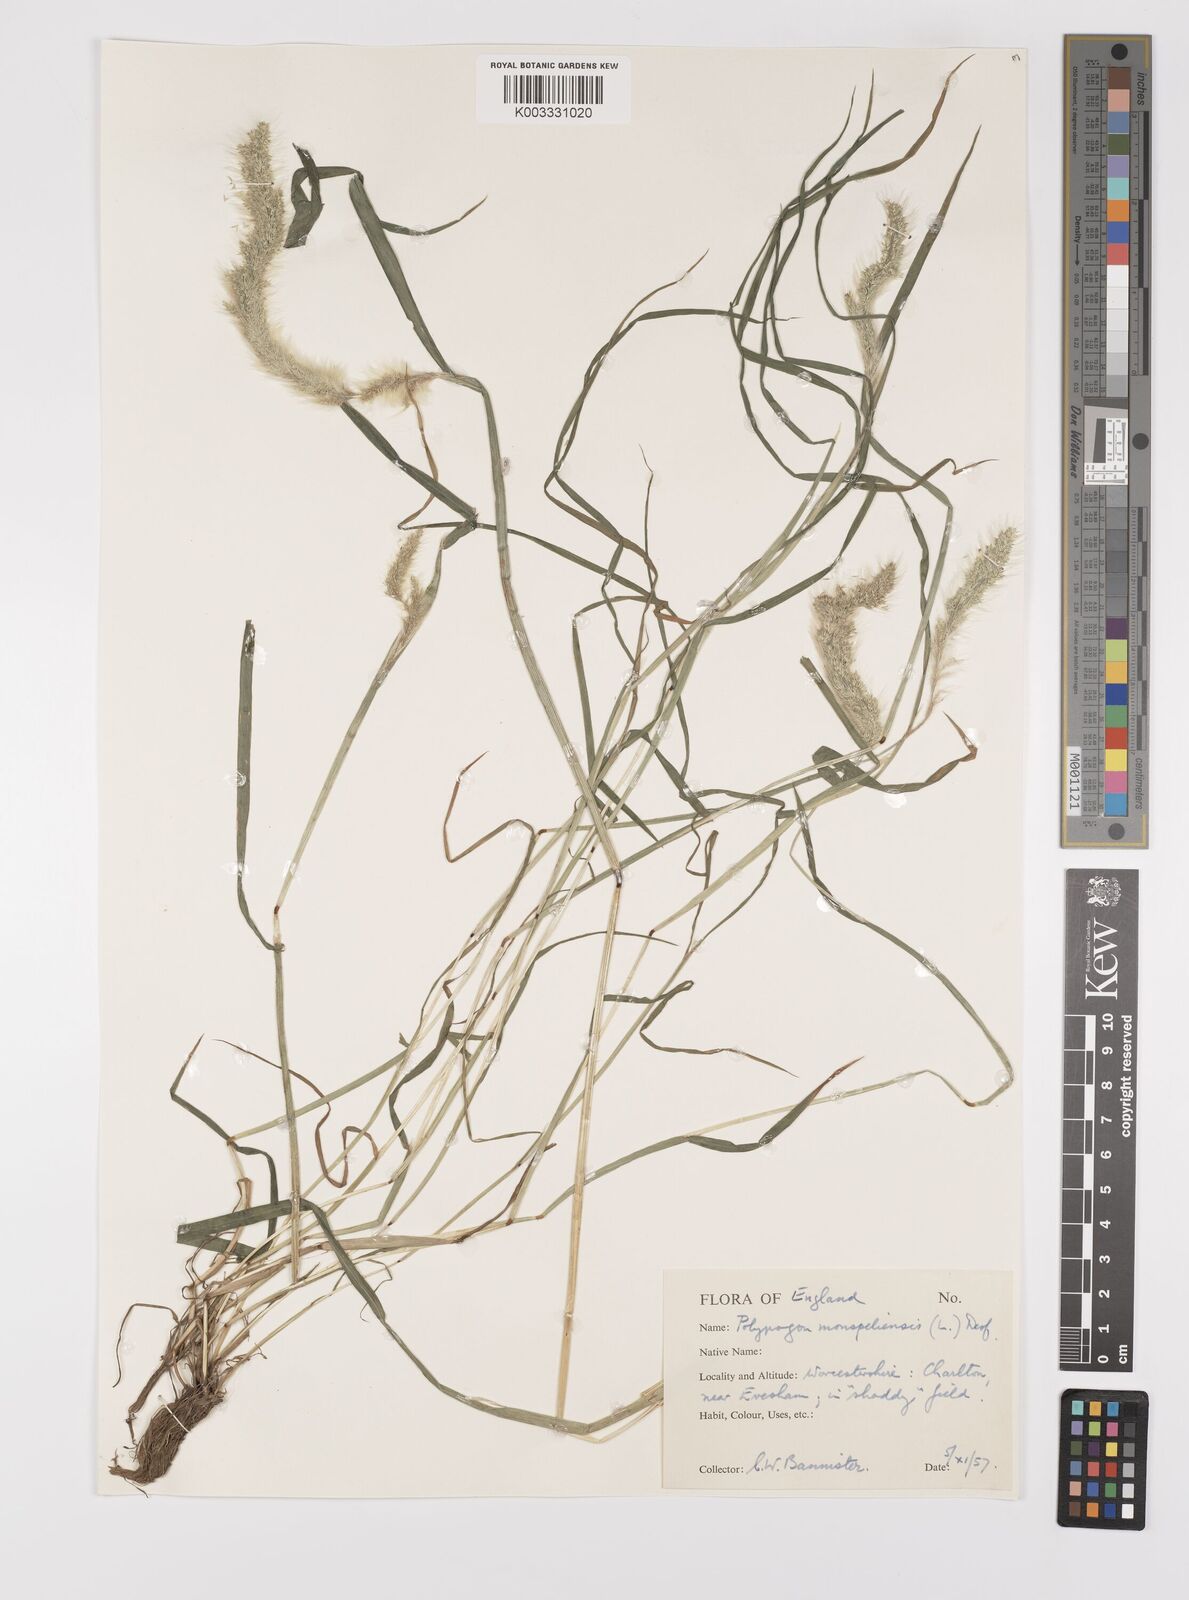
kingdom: Plantae
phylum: Tracheophyta
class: Liliopsida
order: Poales
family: Poaceae
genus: Polypogon
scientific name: Polypogon monspeliensis
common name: Annual rabbitsfoot grass
